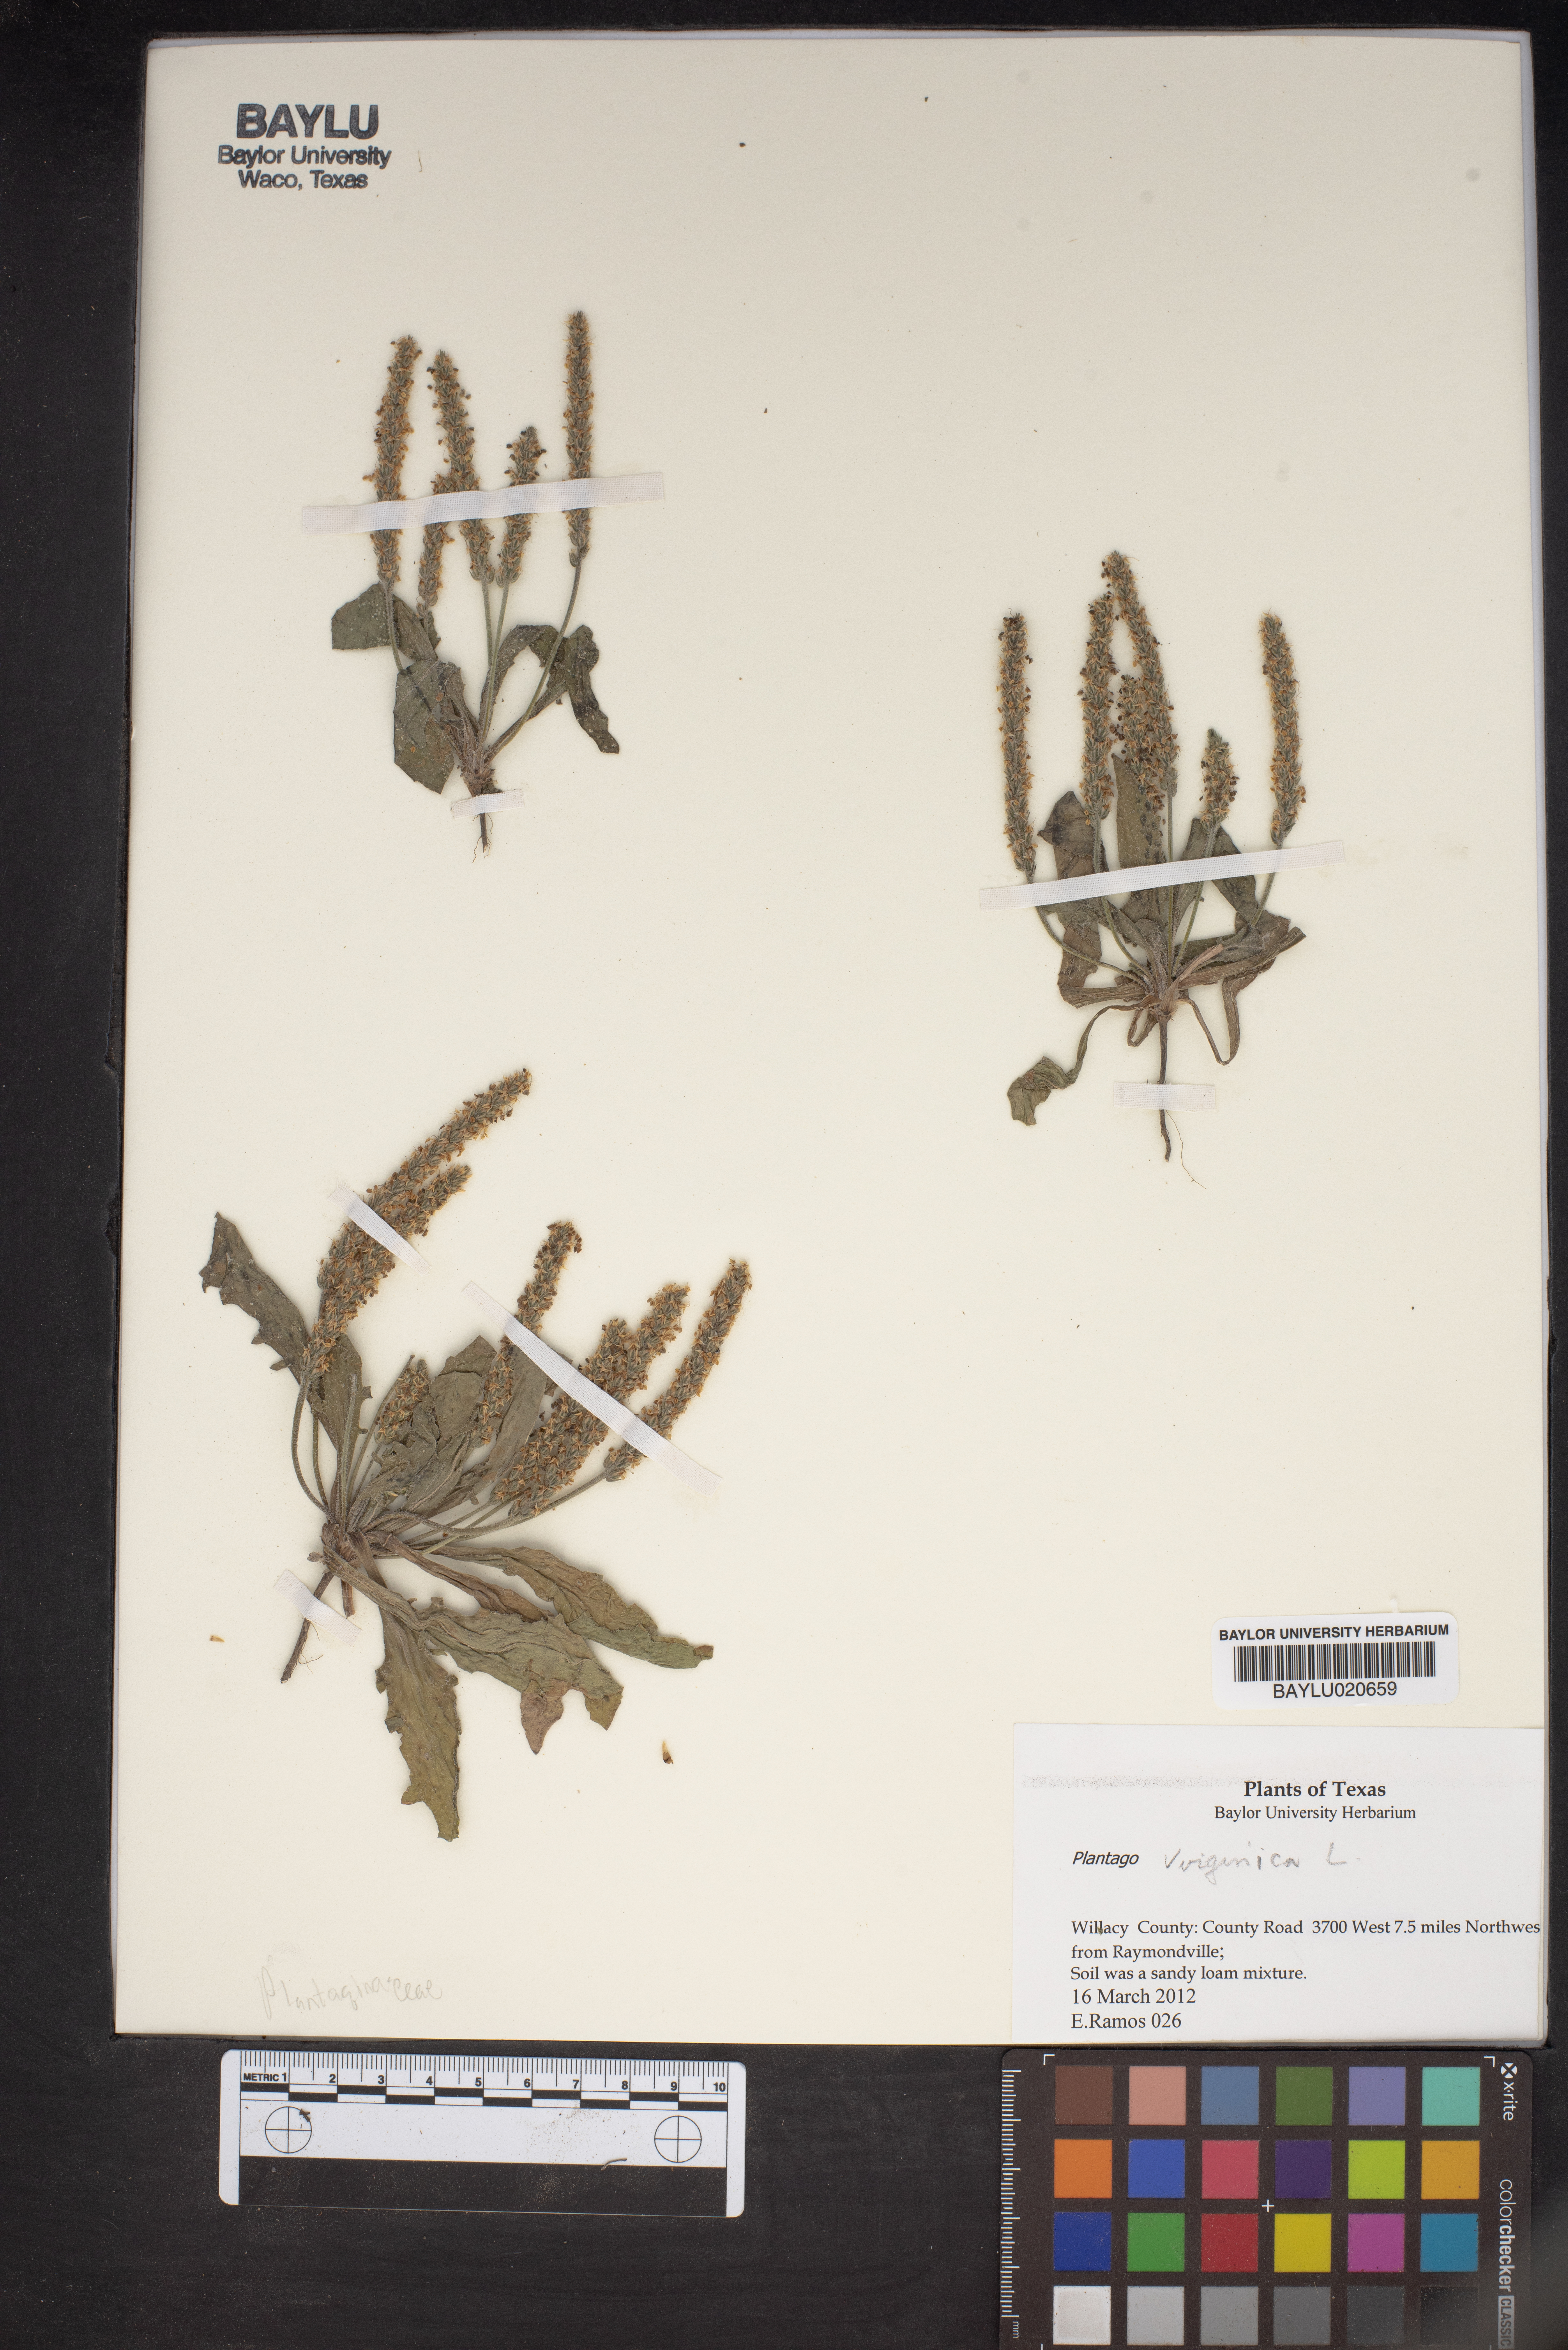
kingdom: Plantae
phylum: Tracheophyta
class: Magnoliopsida
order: Lamiales
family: Plantaginaceae
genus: Plantago
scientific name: Plantago virginica
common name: Hoary plantain
